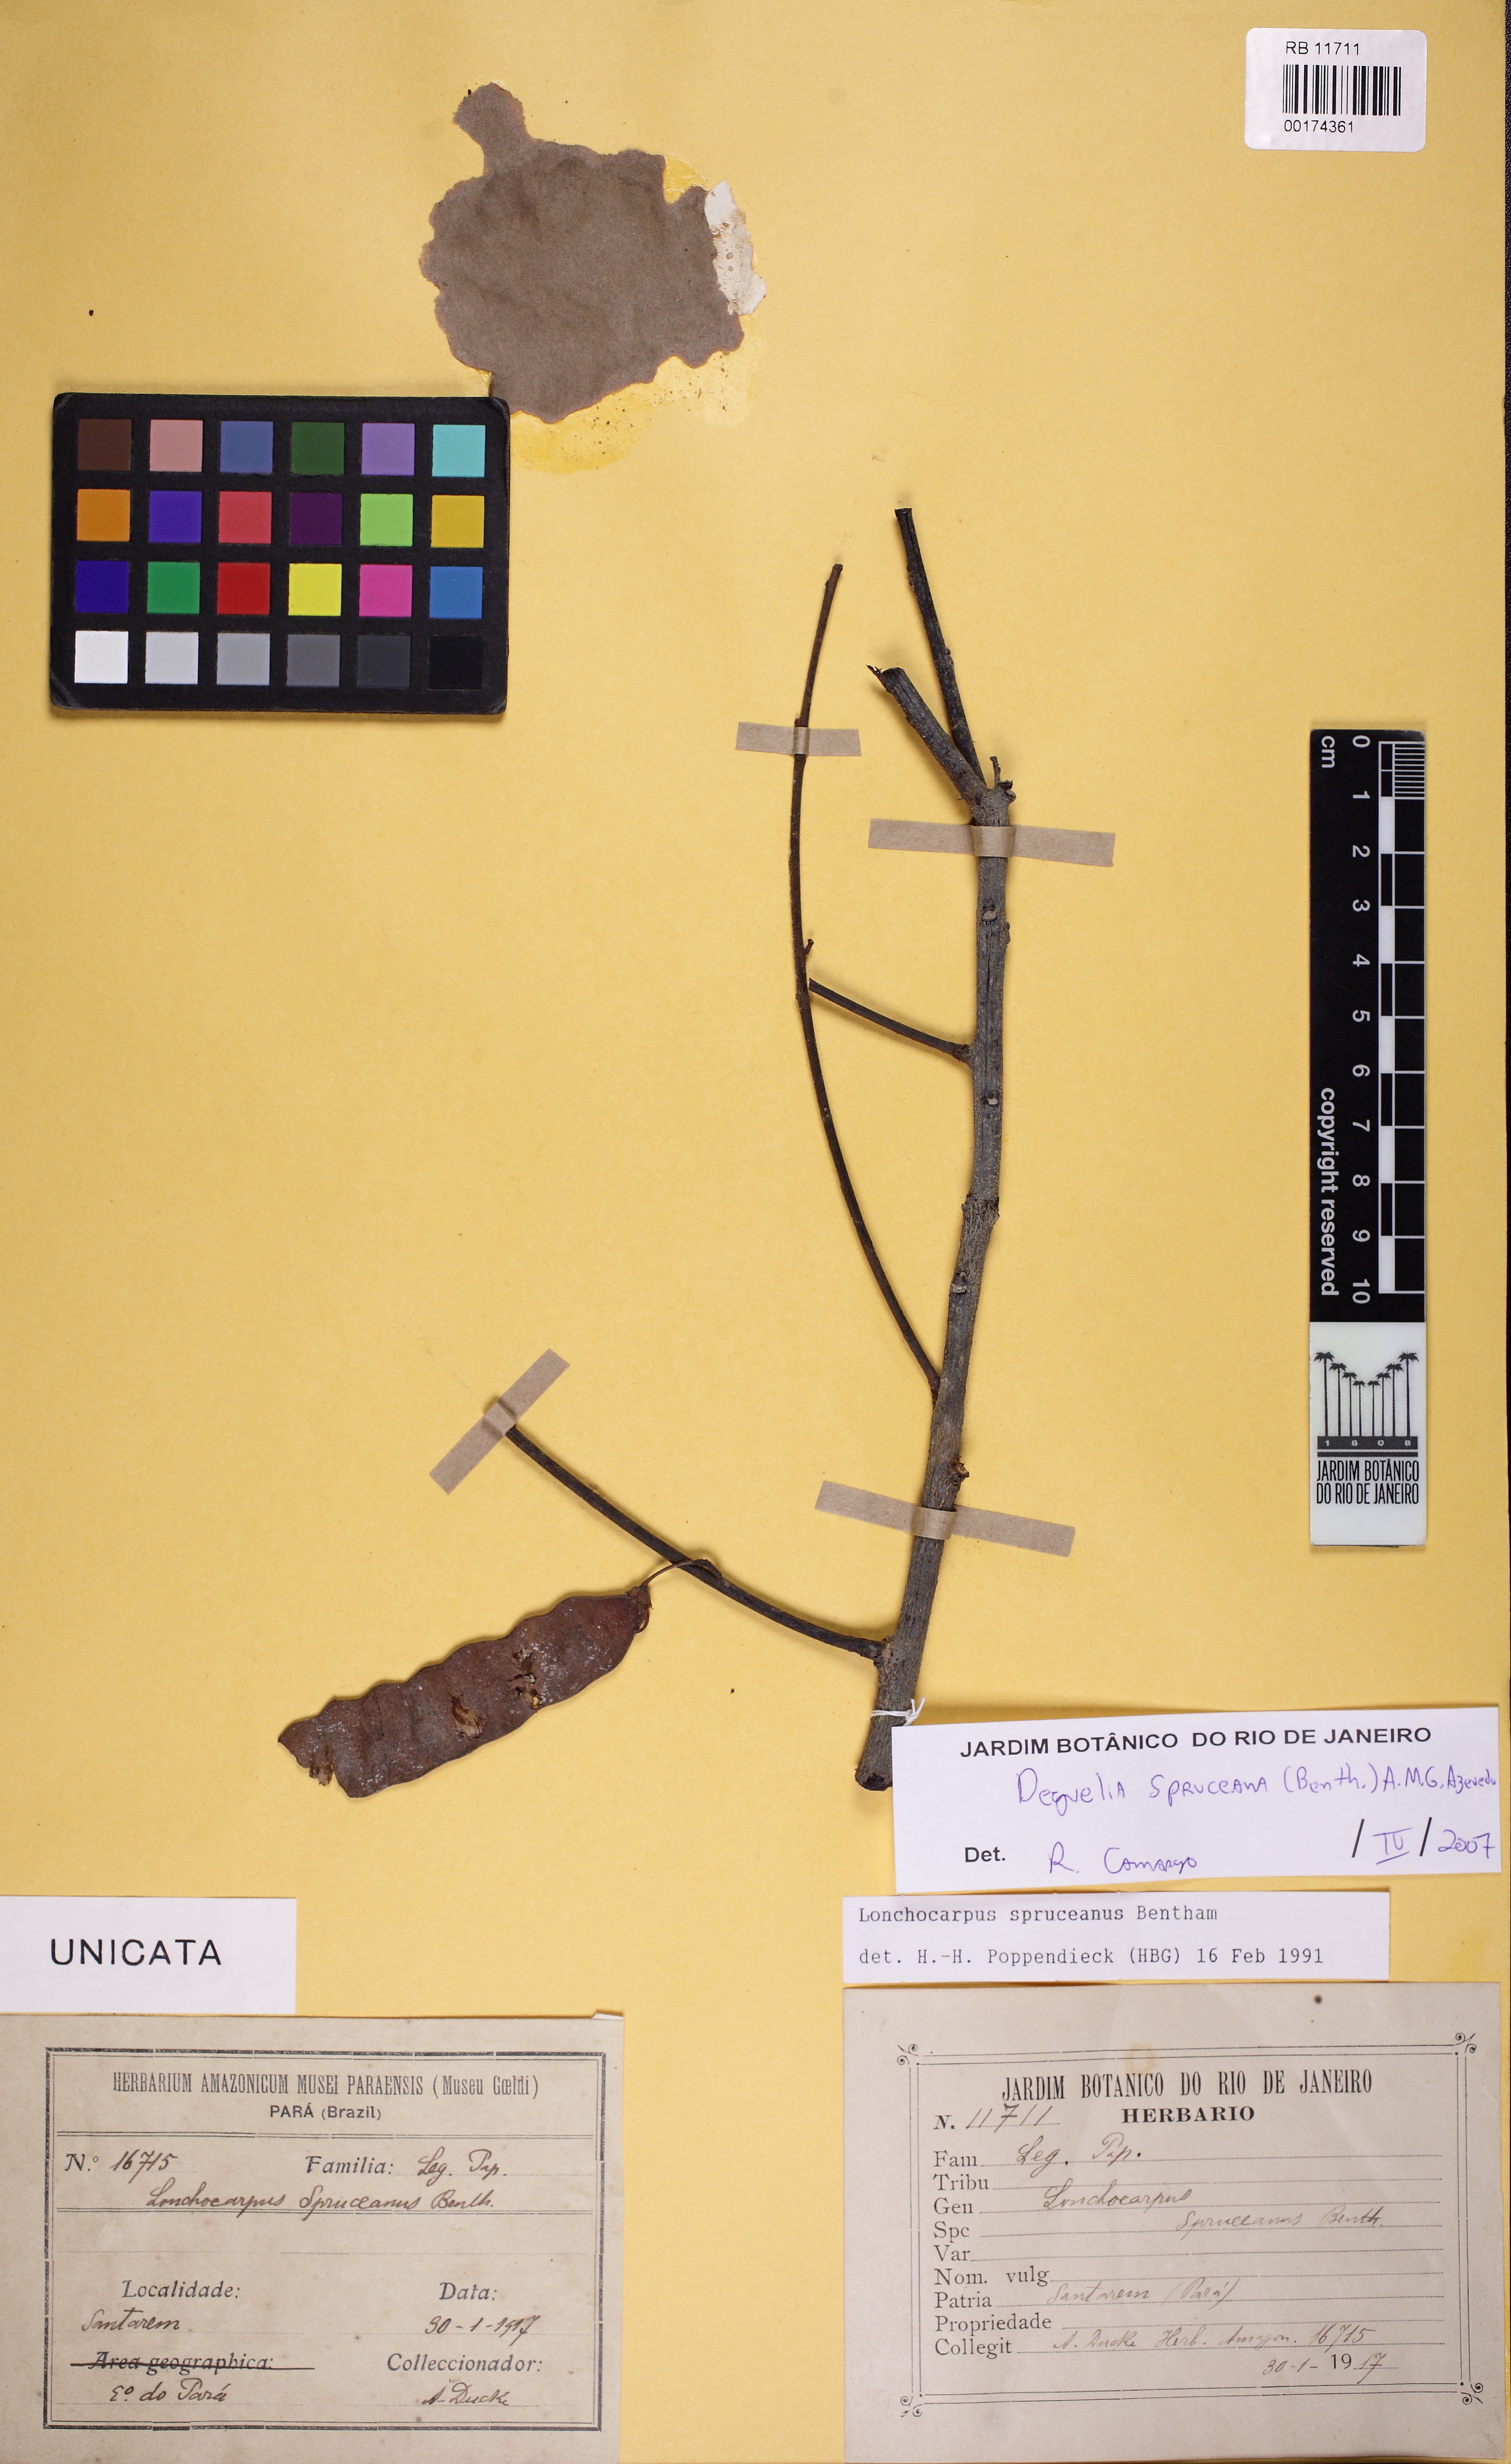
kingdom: Plantae
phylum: Tracheophyta
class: Magnoliopsida
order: Fabales
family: Fabaceae
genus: Deguelia
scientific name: Deguelia spruceana
